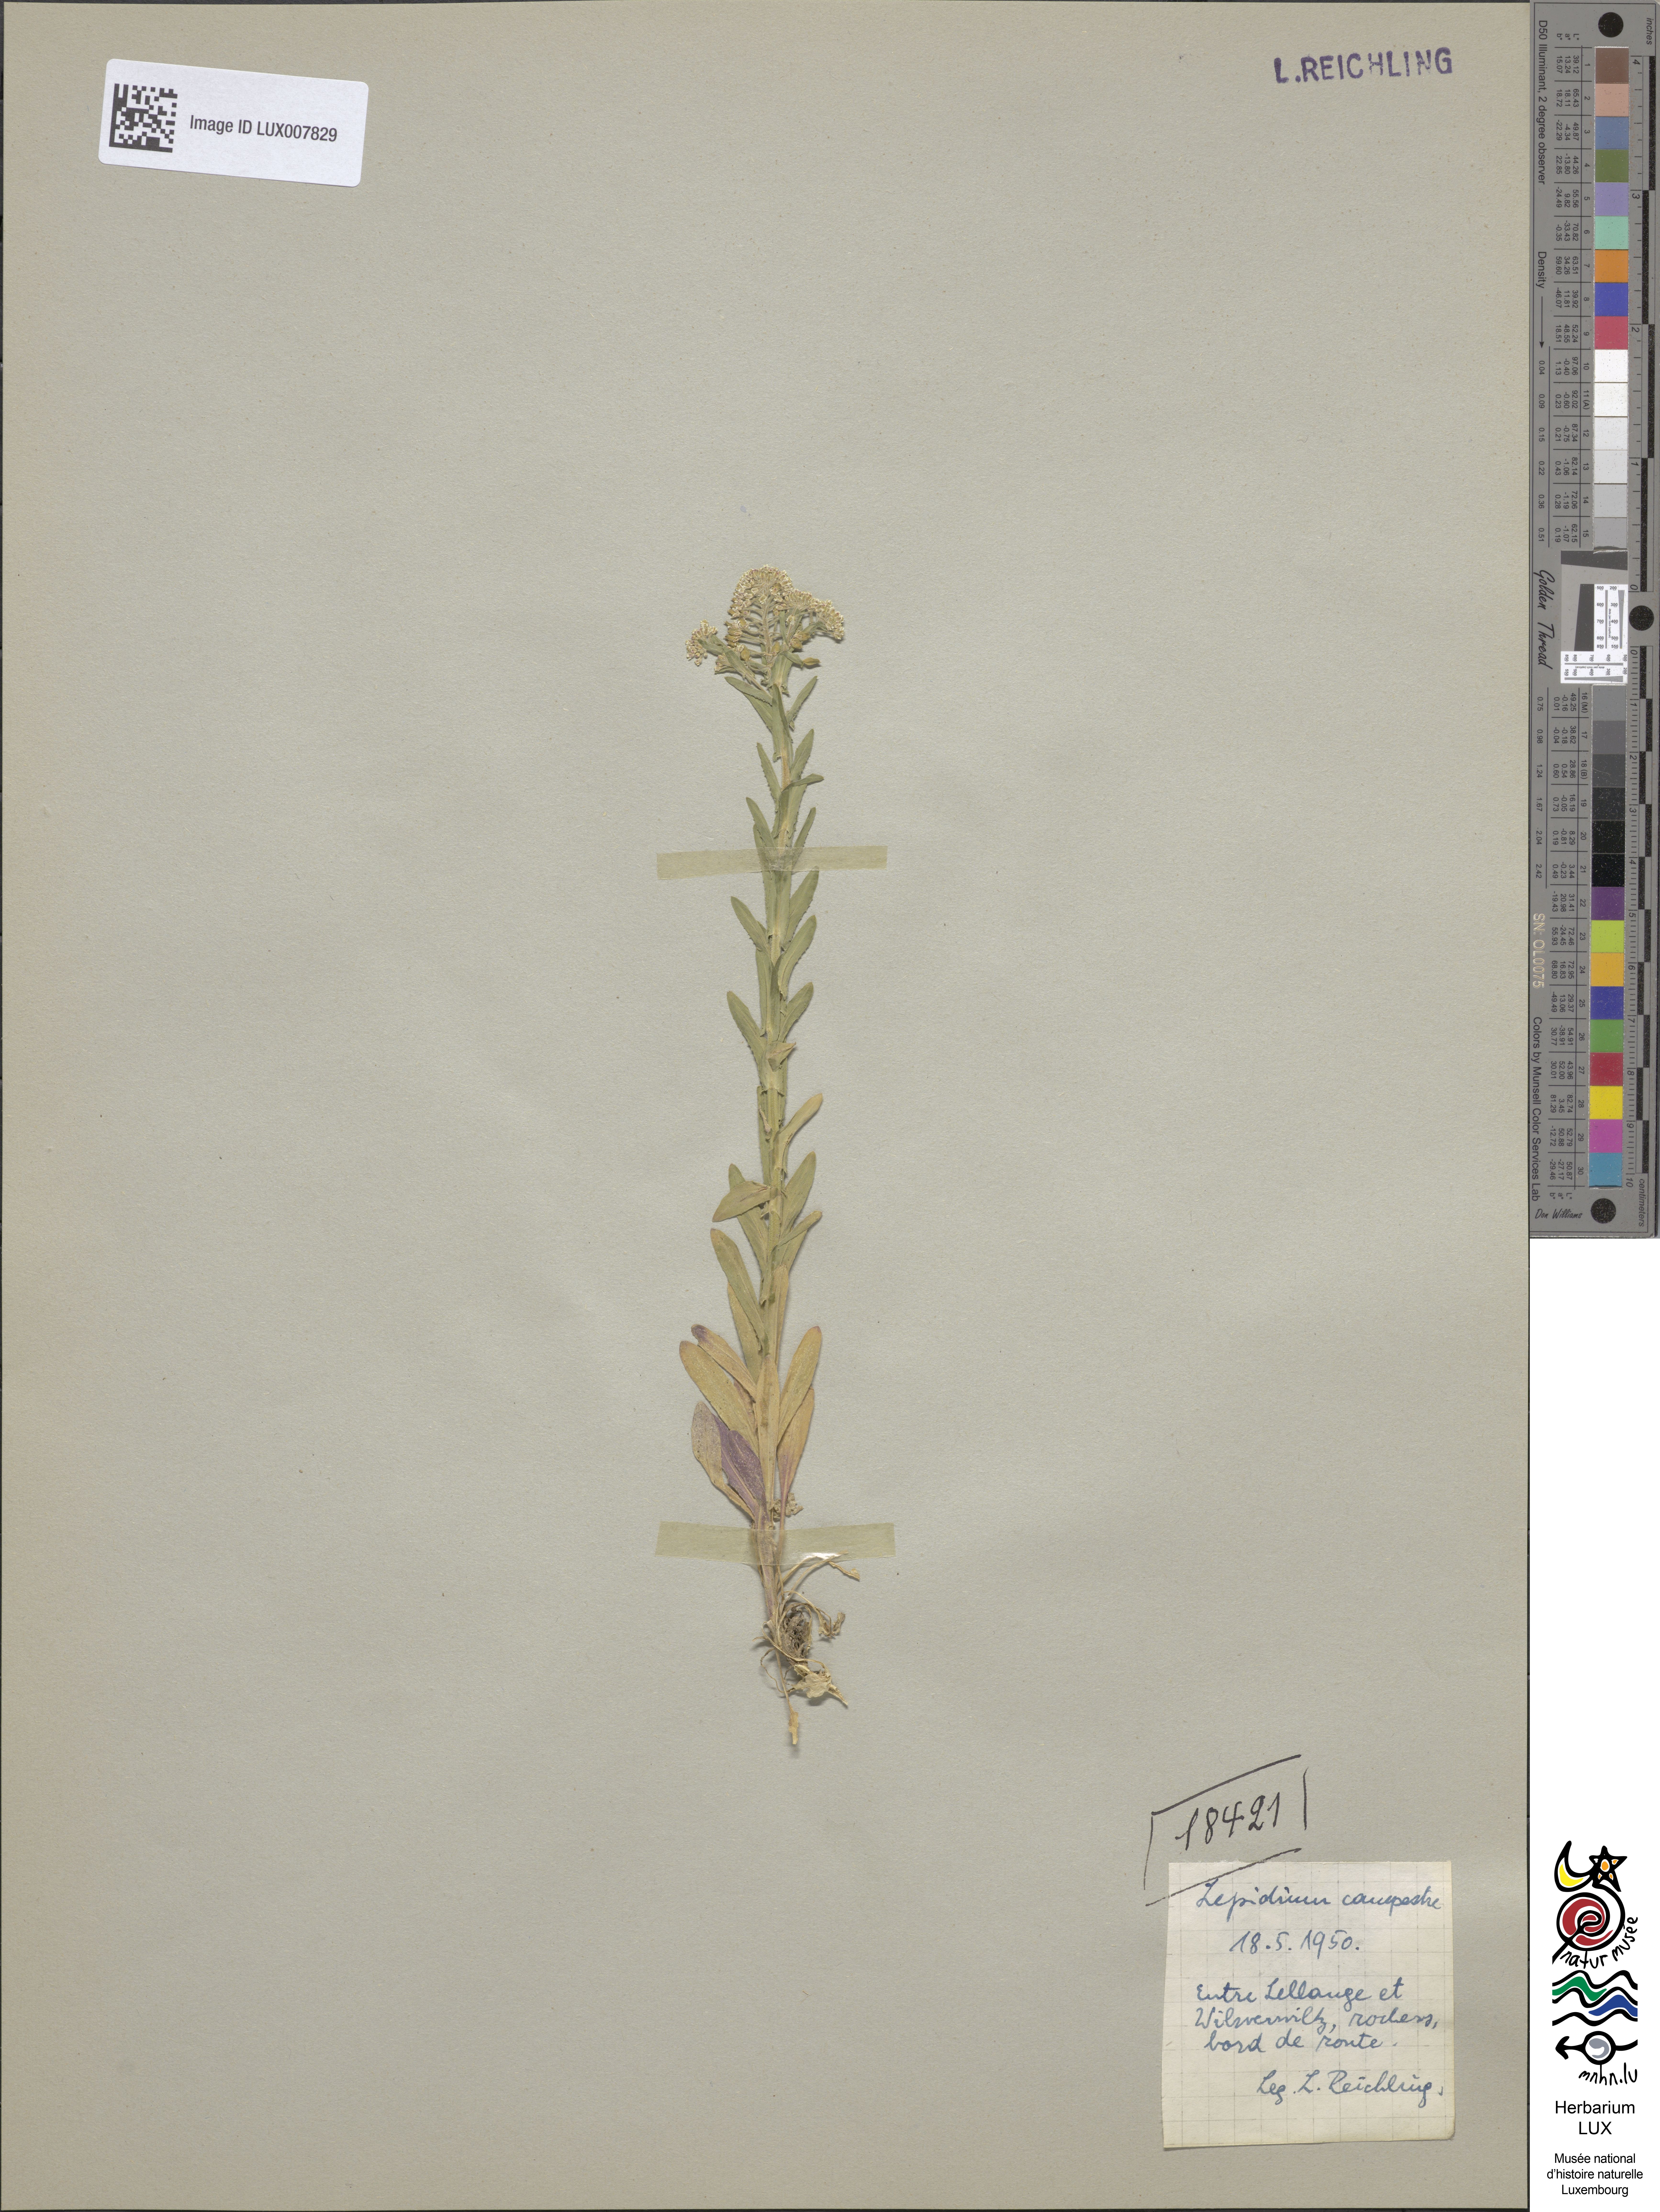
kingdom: Plantae
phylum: Tracheophyta
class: Magnoliopsida
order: Brassicales
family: Brassicaceae
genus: Lepidium
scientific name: Lepidium campestre
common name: Field pepperwort
